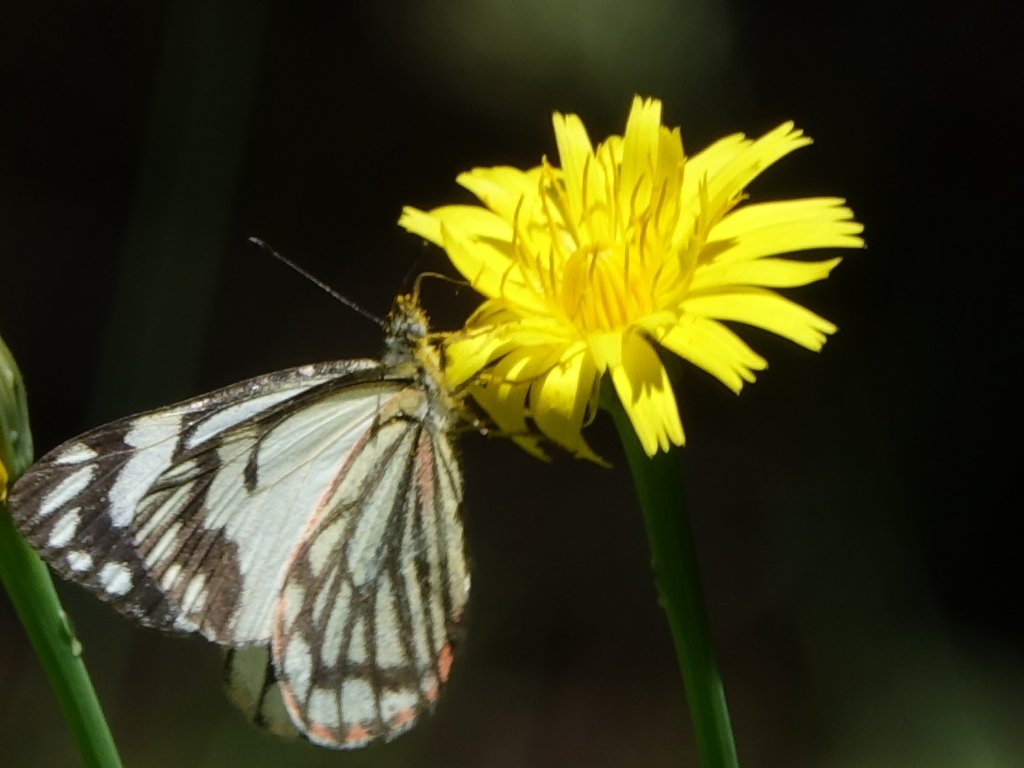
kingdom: Animalia
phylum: Arthropoda
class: Insecta
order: Lepidoptera
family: Pieridae
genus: Neophasia
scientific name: Neophasia menapia
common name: Pine White
